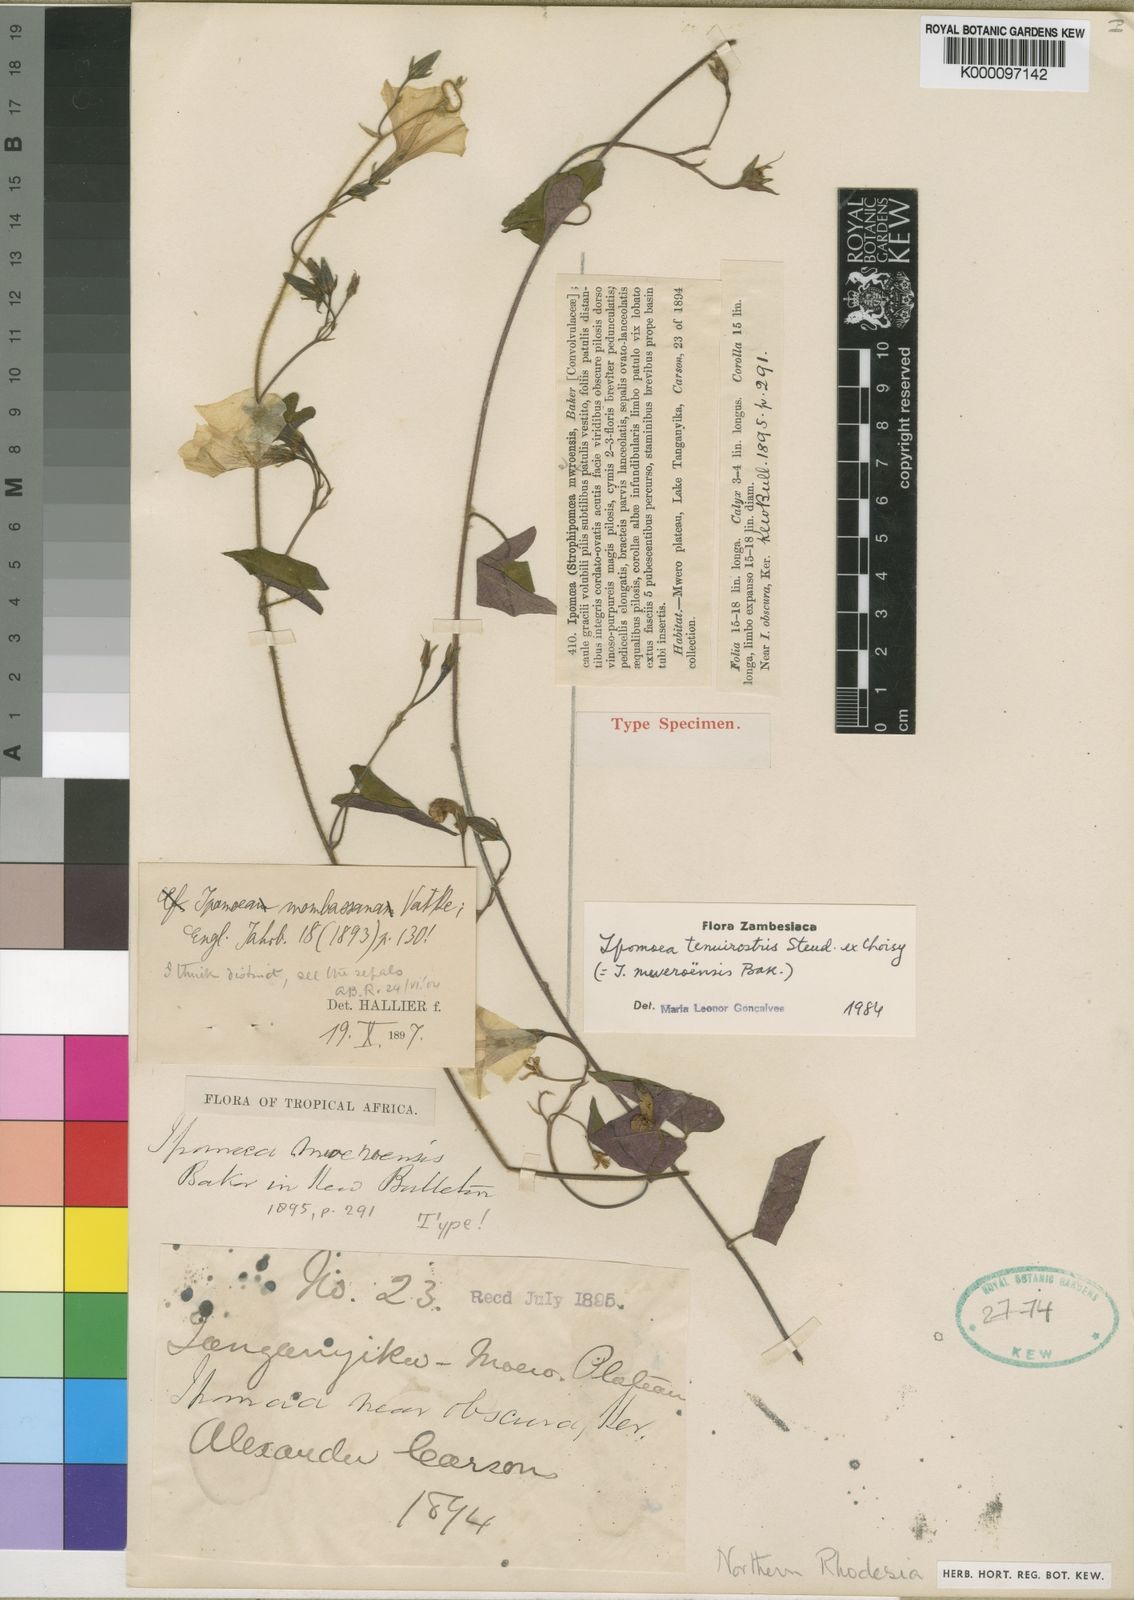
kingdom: Plantae
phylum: Tracheophyta
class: Magnoliopsida
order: Solanales
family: Convolvulaceae
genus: Ipomoea
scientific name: Ipomoea tenuirostris
